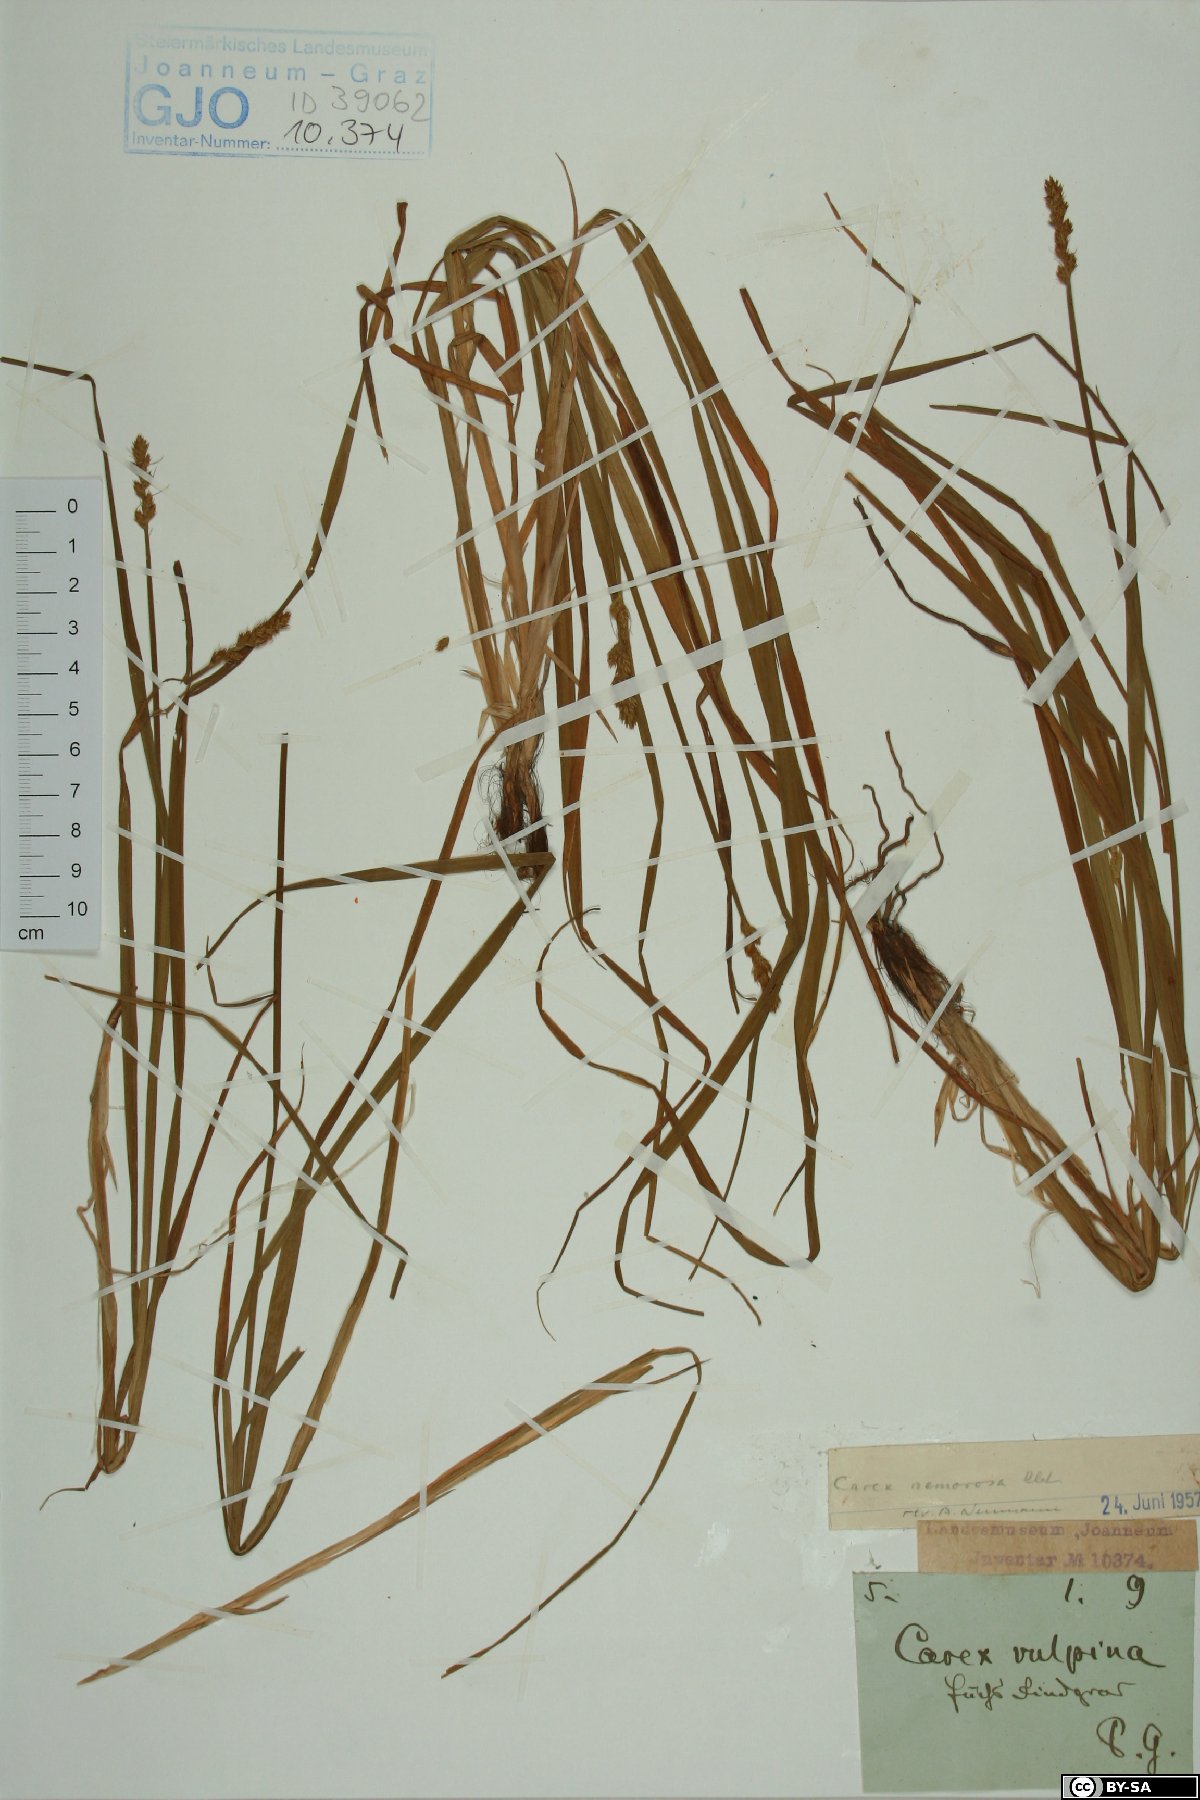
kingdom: Plantae
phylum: Tracheophyta
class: Liliopsida
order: Poales
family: Cyperaceae
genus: Carex
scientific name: Carex otrubae
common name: False fox-sedge
